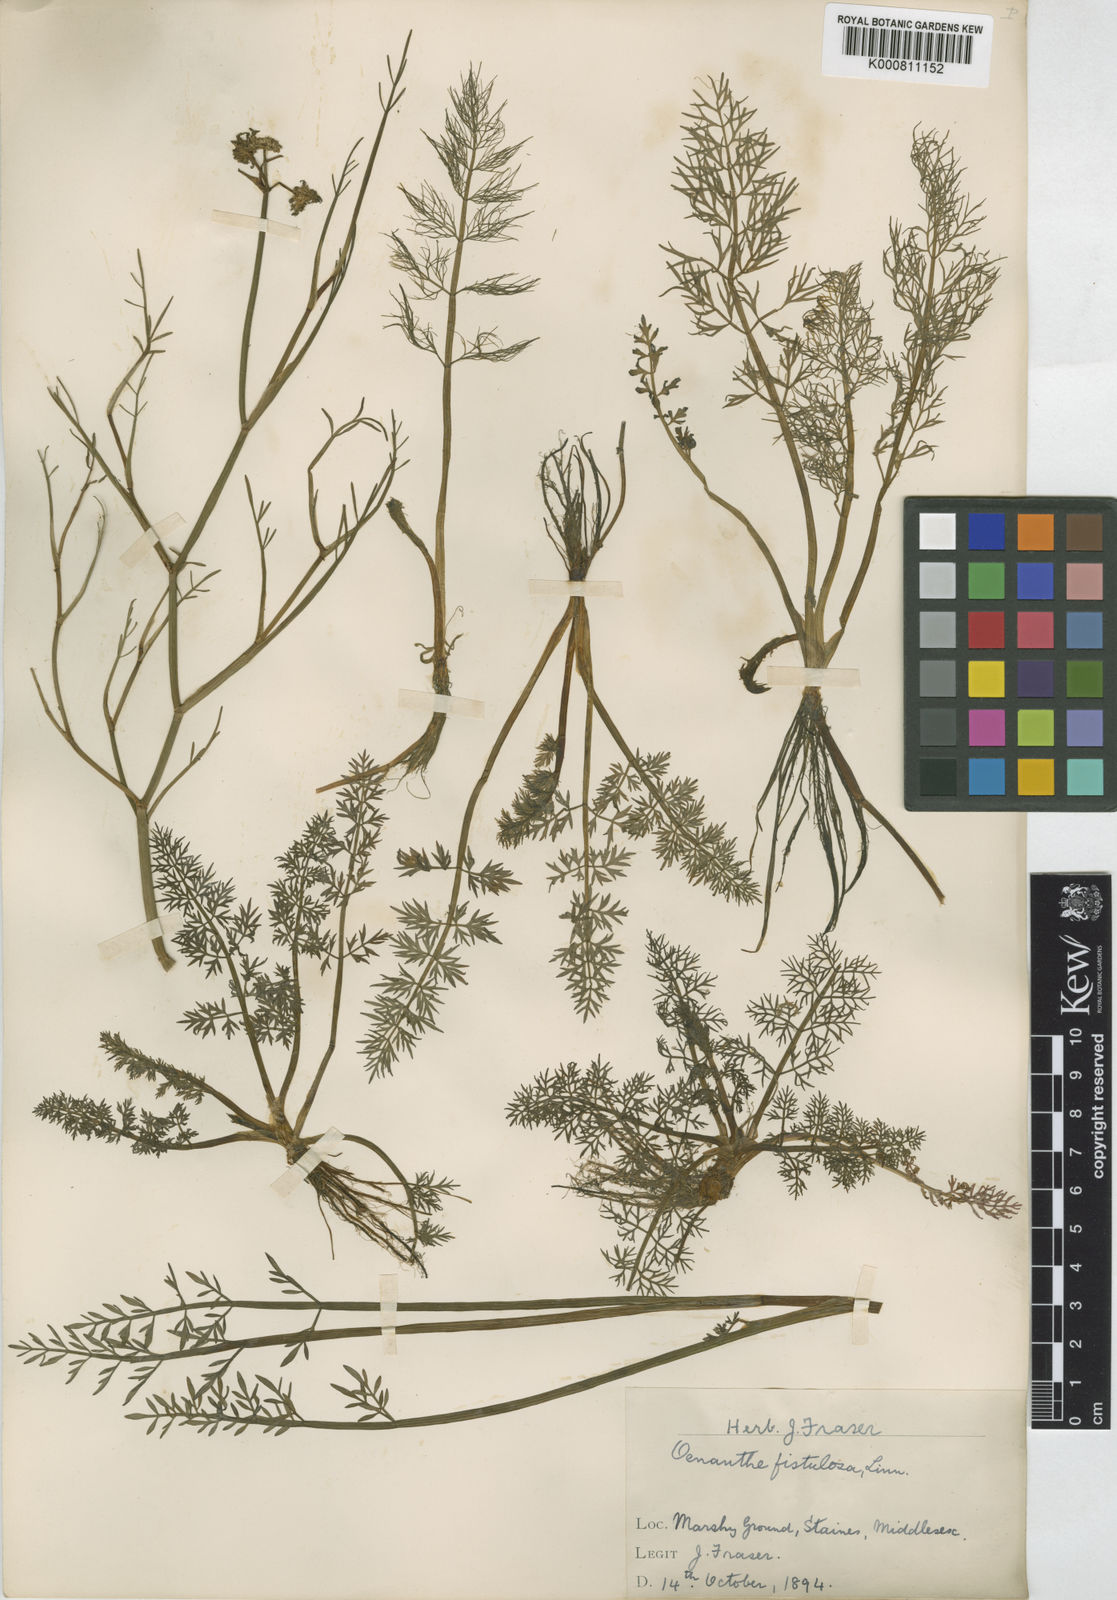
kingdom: Plantae
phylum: Tracheophyta
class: Magnoliopsida
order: Apiales
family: Apiaceae
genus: Oenanthe
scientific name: Oenanthe fistulosa
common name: Tubular water-dropwort
